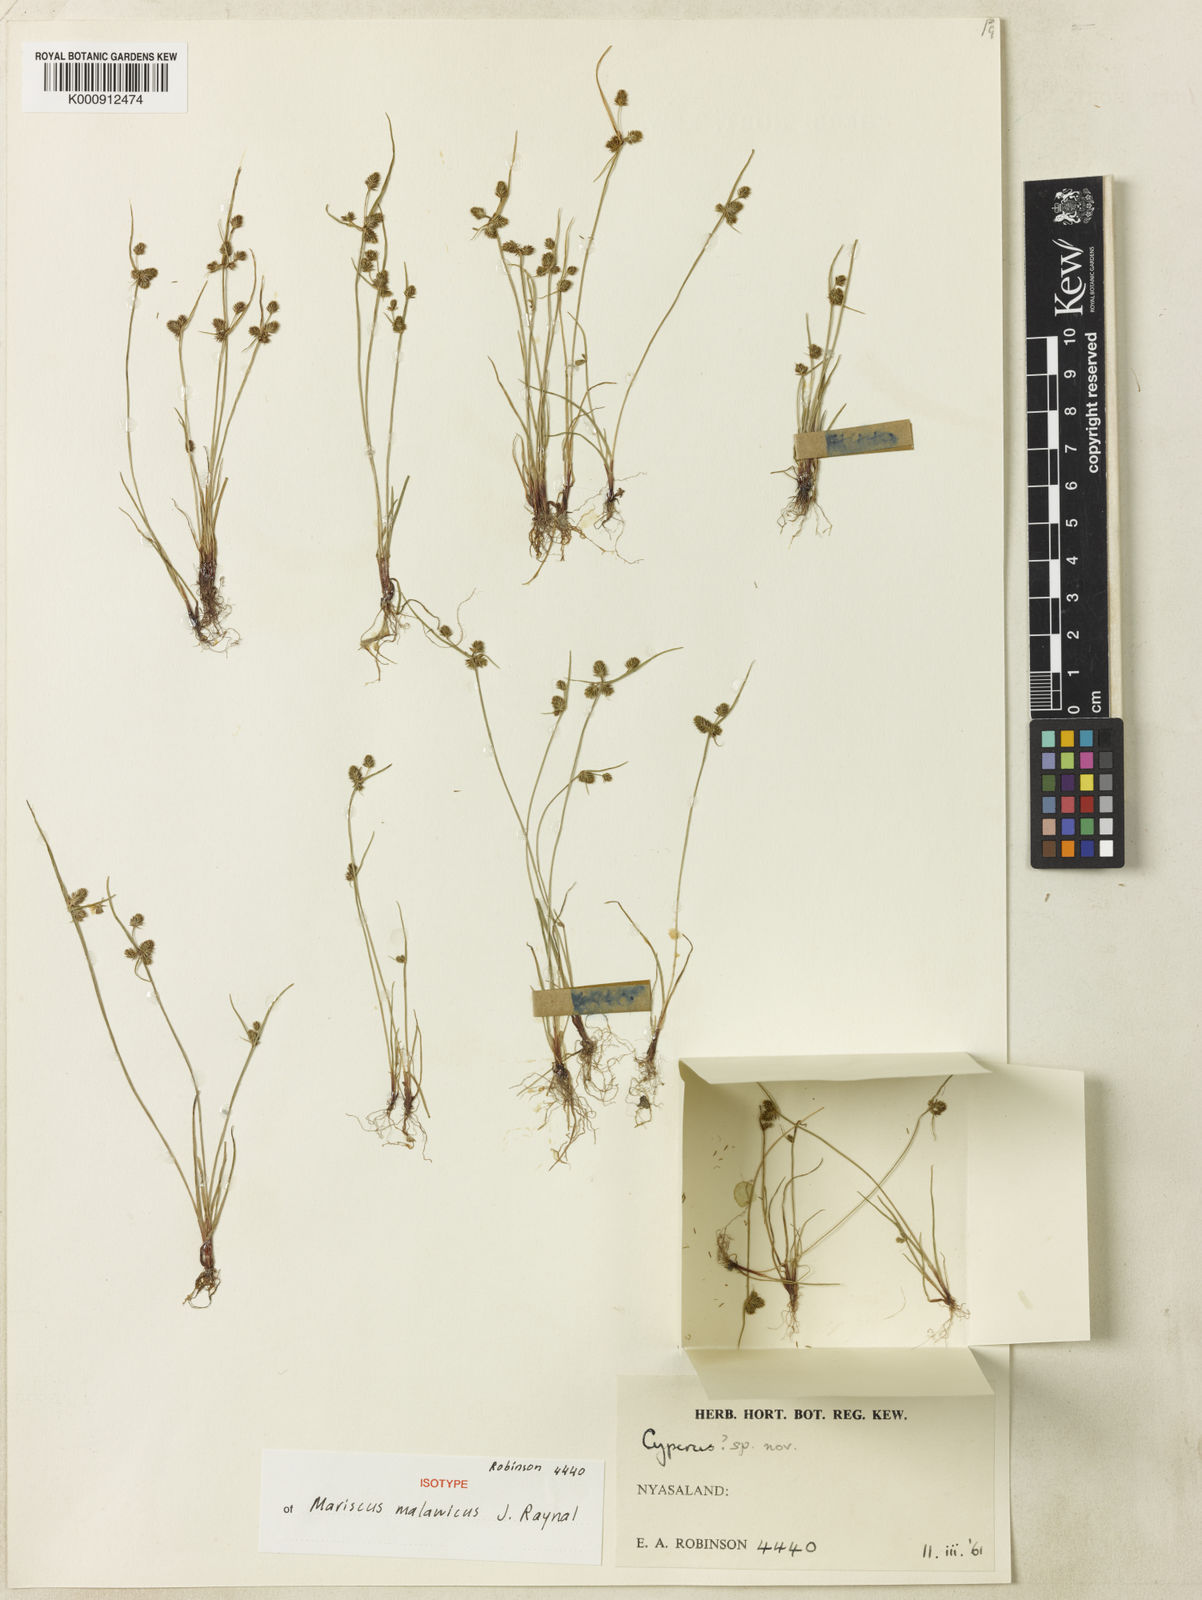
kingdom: Plantae
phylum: Tracheophyta
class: Liliopsida
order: Poales
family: Cyperaceae
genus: Cyperus
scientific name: Cyperus malawicus
